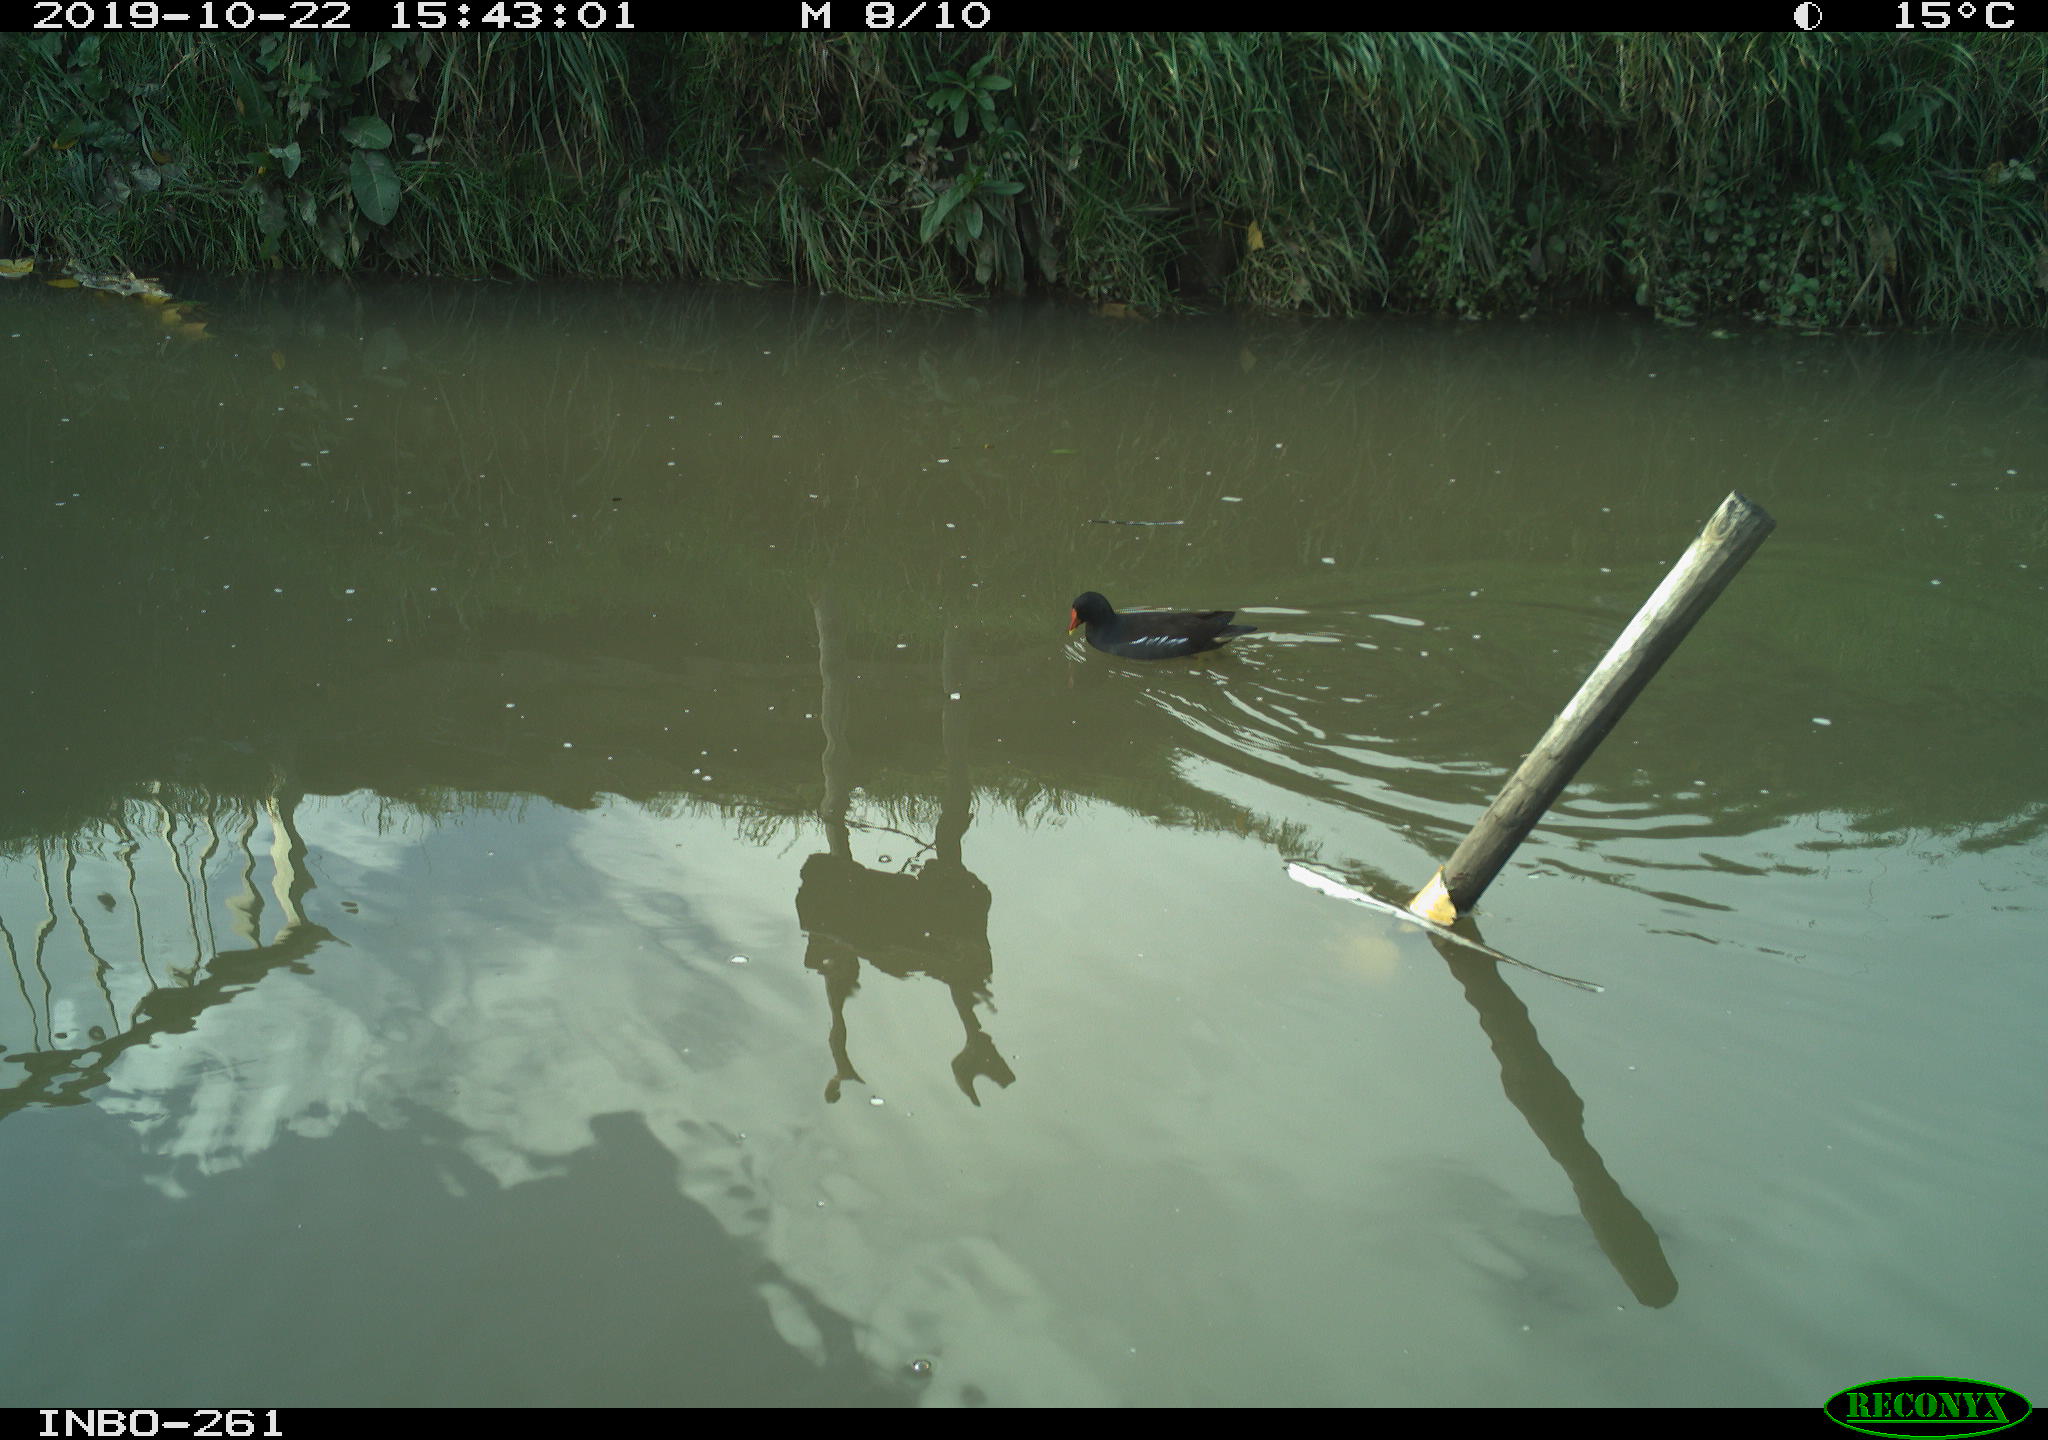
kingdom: Animalia
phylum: Chordata
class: Aves
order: Gruiformes
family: Rallidae
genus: Gallinula
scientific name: Gallinula chloropus
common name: Common moorhen
